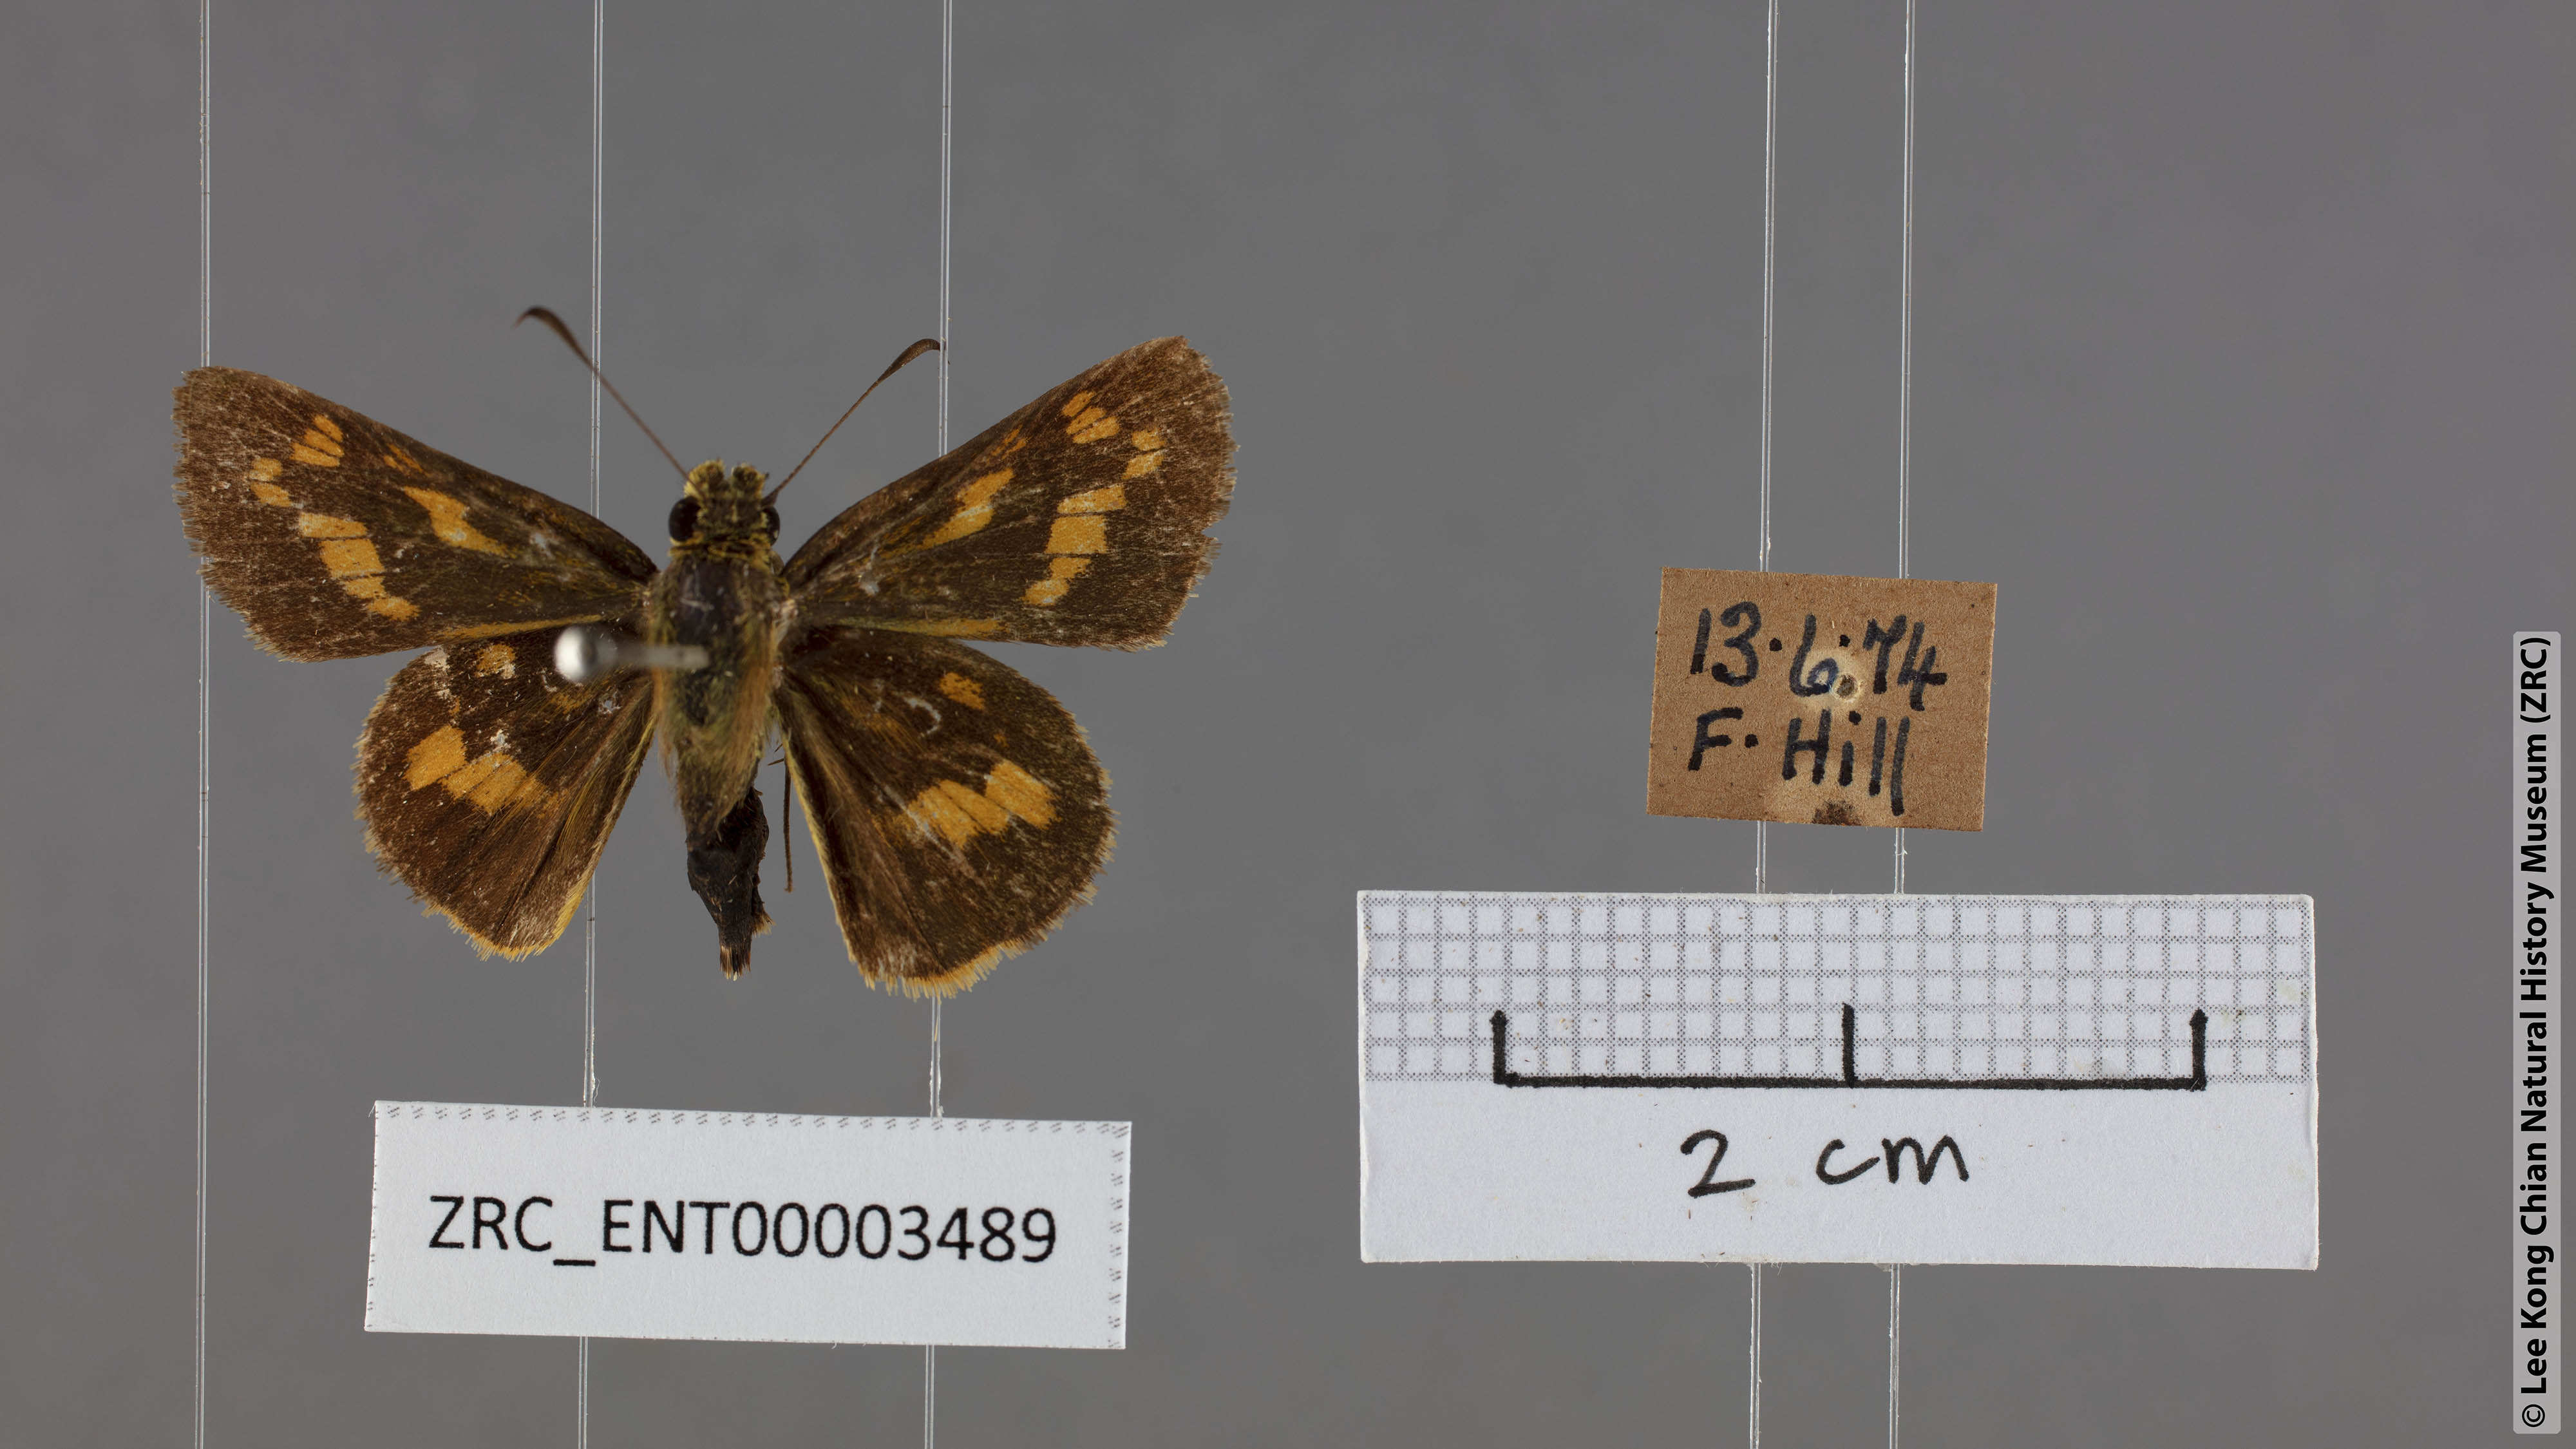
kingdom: Animalia
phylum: Arthropoda
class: Insecta
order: Lepidoptera
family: Hesperiidae
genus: Potanthus
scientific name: Potanthus trachala
